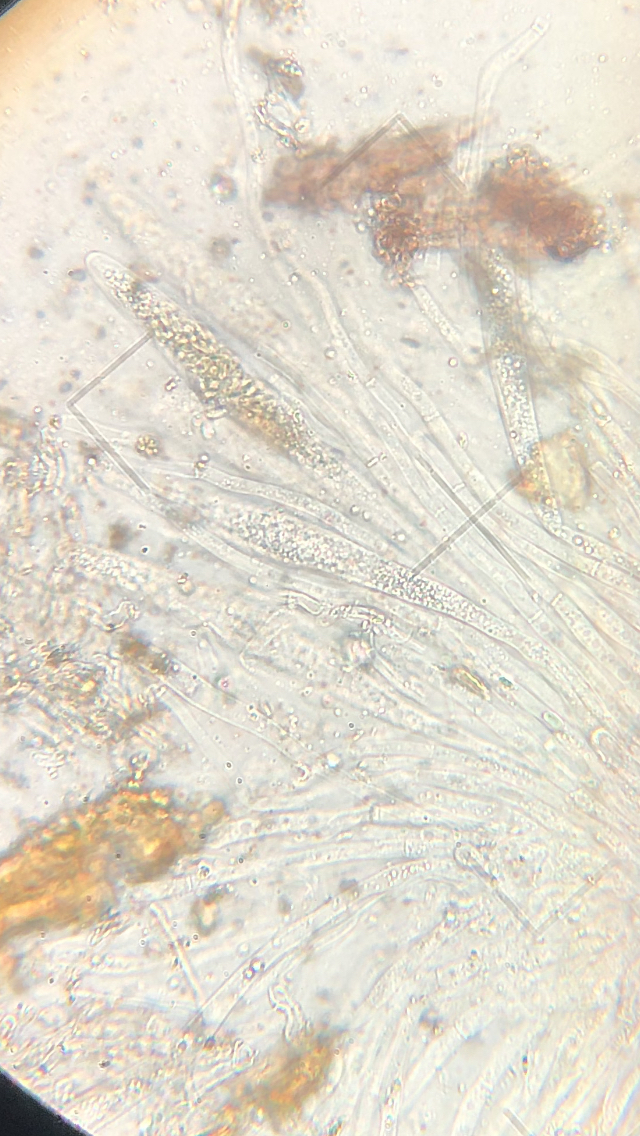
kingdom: Fungi
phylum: Ascomycota
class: Sordariomycetes
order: Xylariales
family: Diatrypaceae
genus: Diatrypella
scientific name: Diatrypella favacea
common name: klemt kulskorpe
